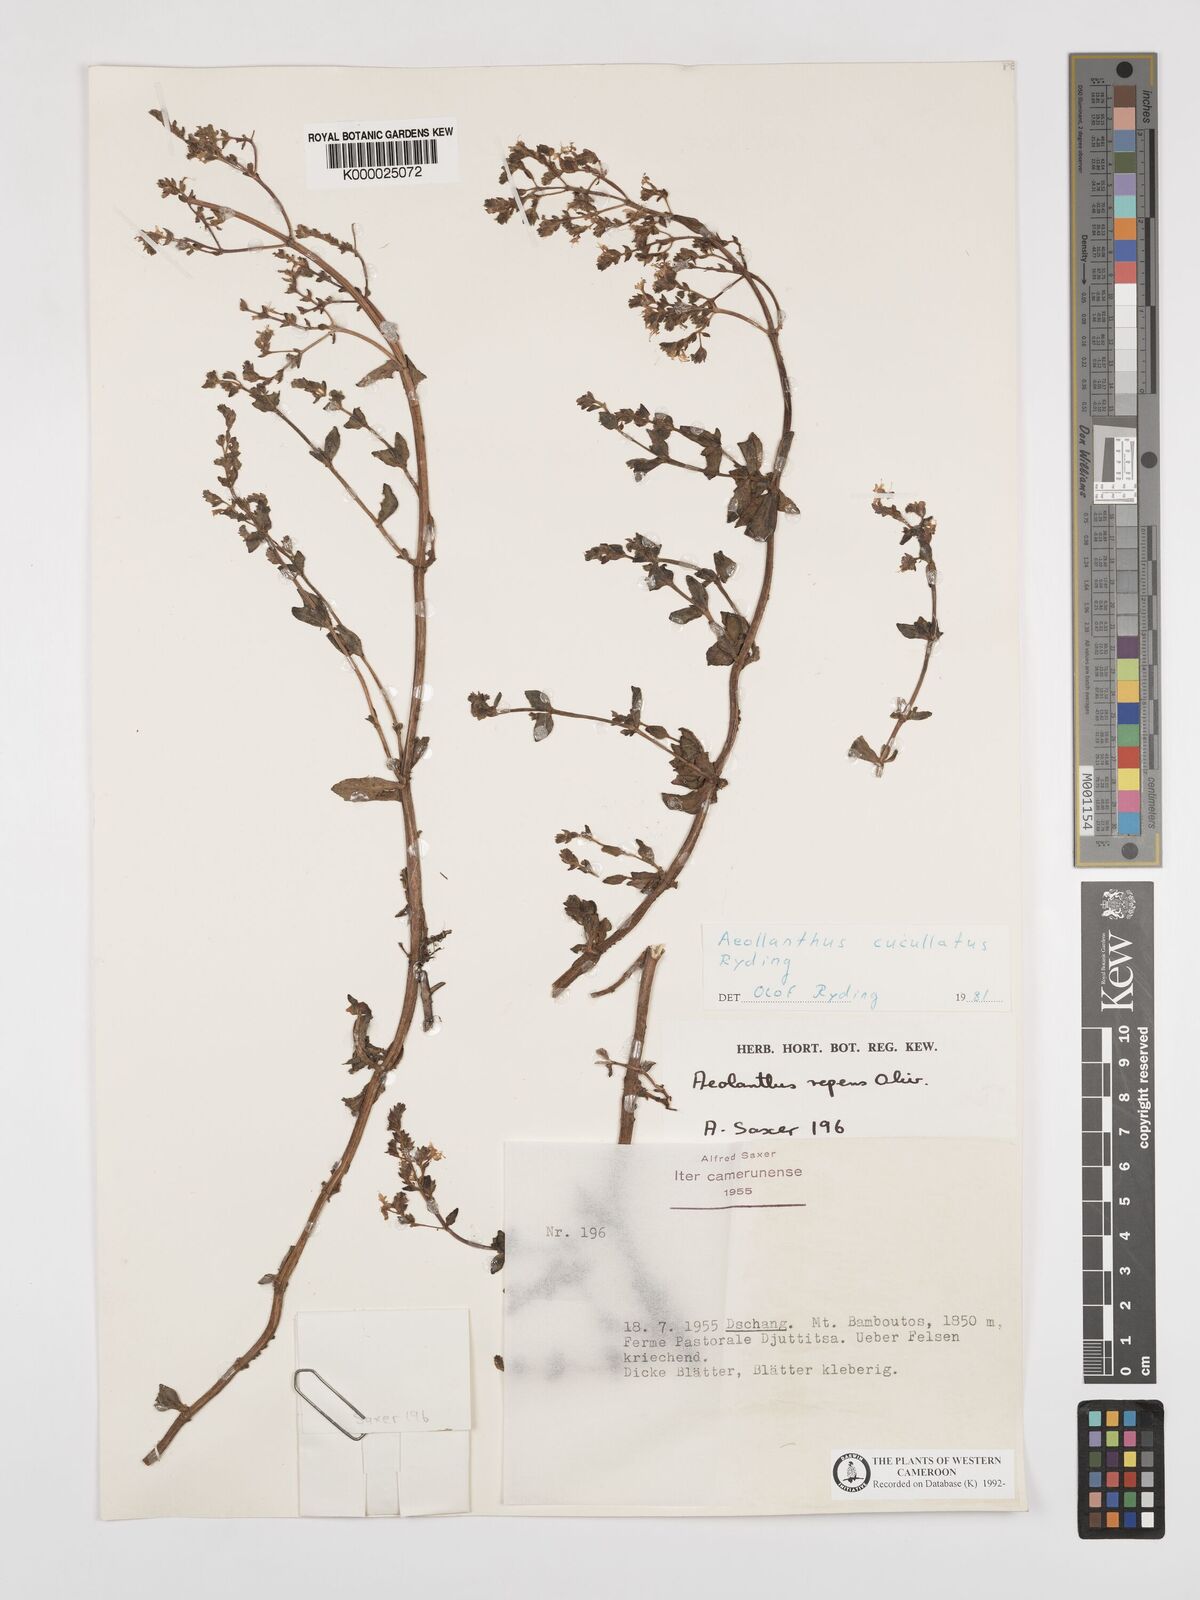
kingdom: Plantae
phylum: Tracheophyta
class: Magnoliopsida
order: Lamiales
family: Lamiaceae
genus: Aeollanthus
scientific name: Aeollanthus cucullatus
